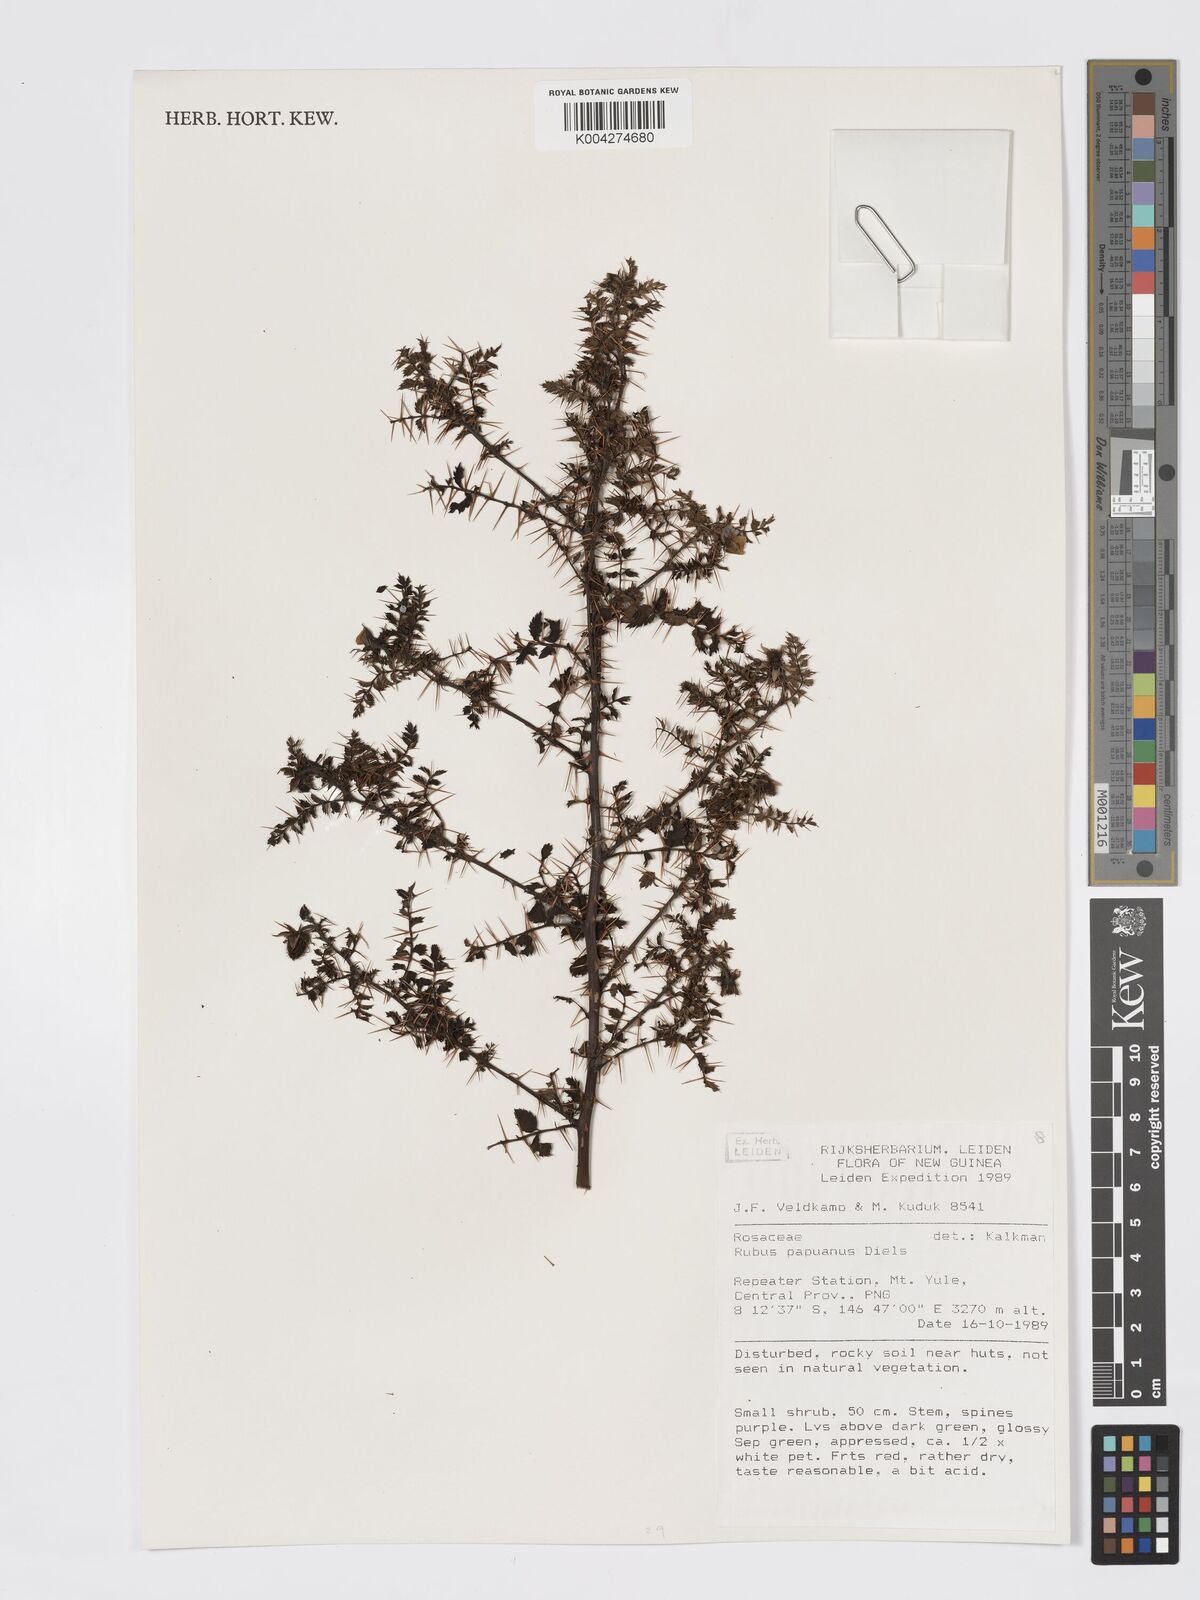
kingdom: Plantae
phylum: Tracheophyta
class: Magnoliopsida
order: Rosales
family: Rosaceae
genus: Rubus
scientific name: Rubus papuanus
